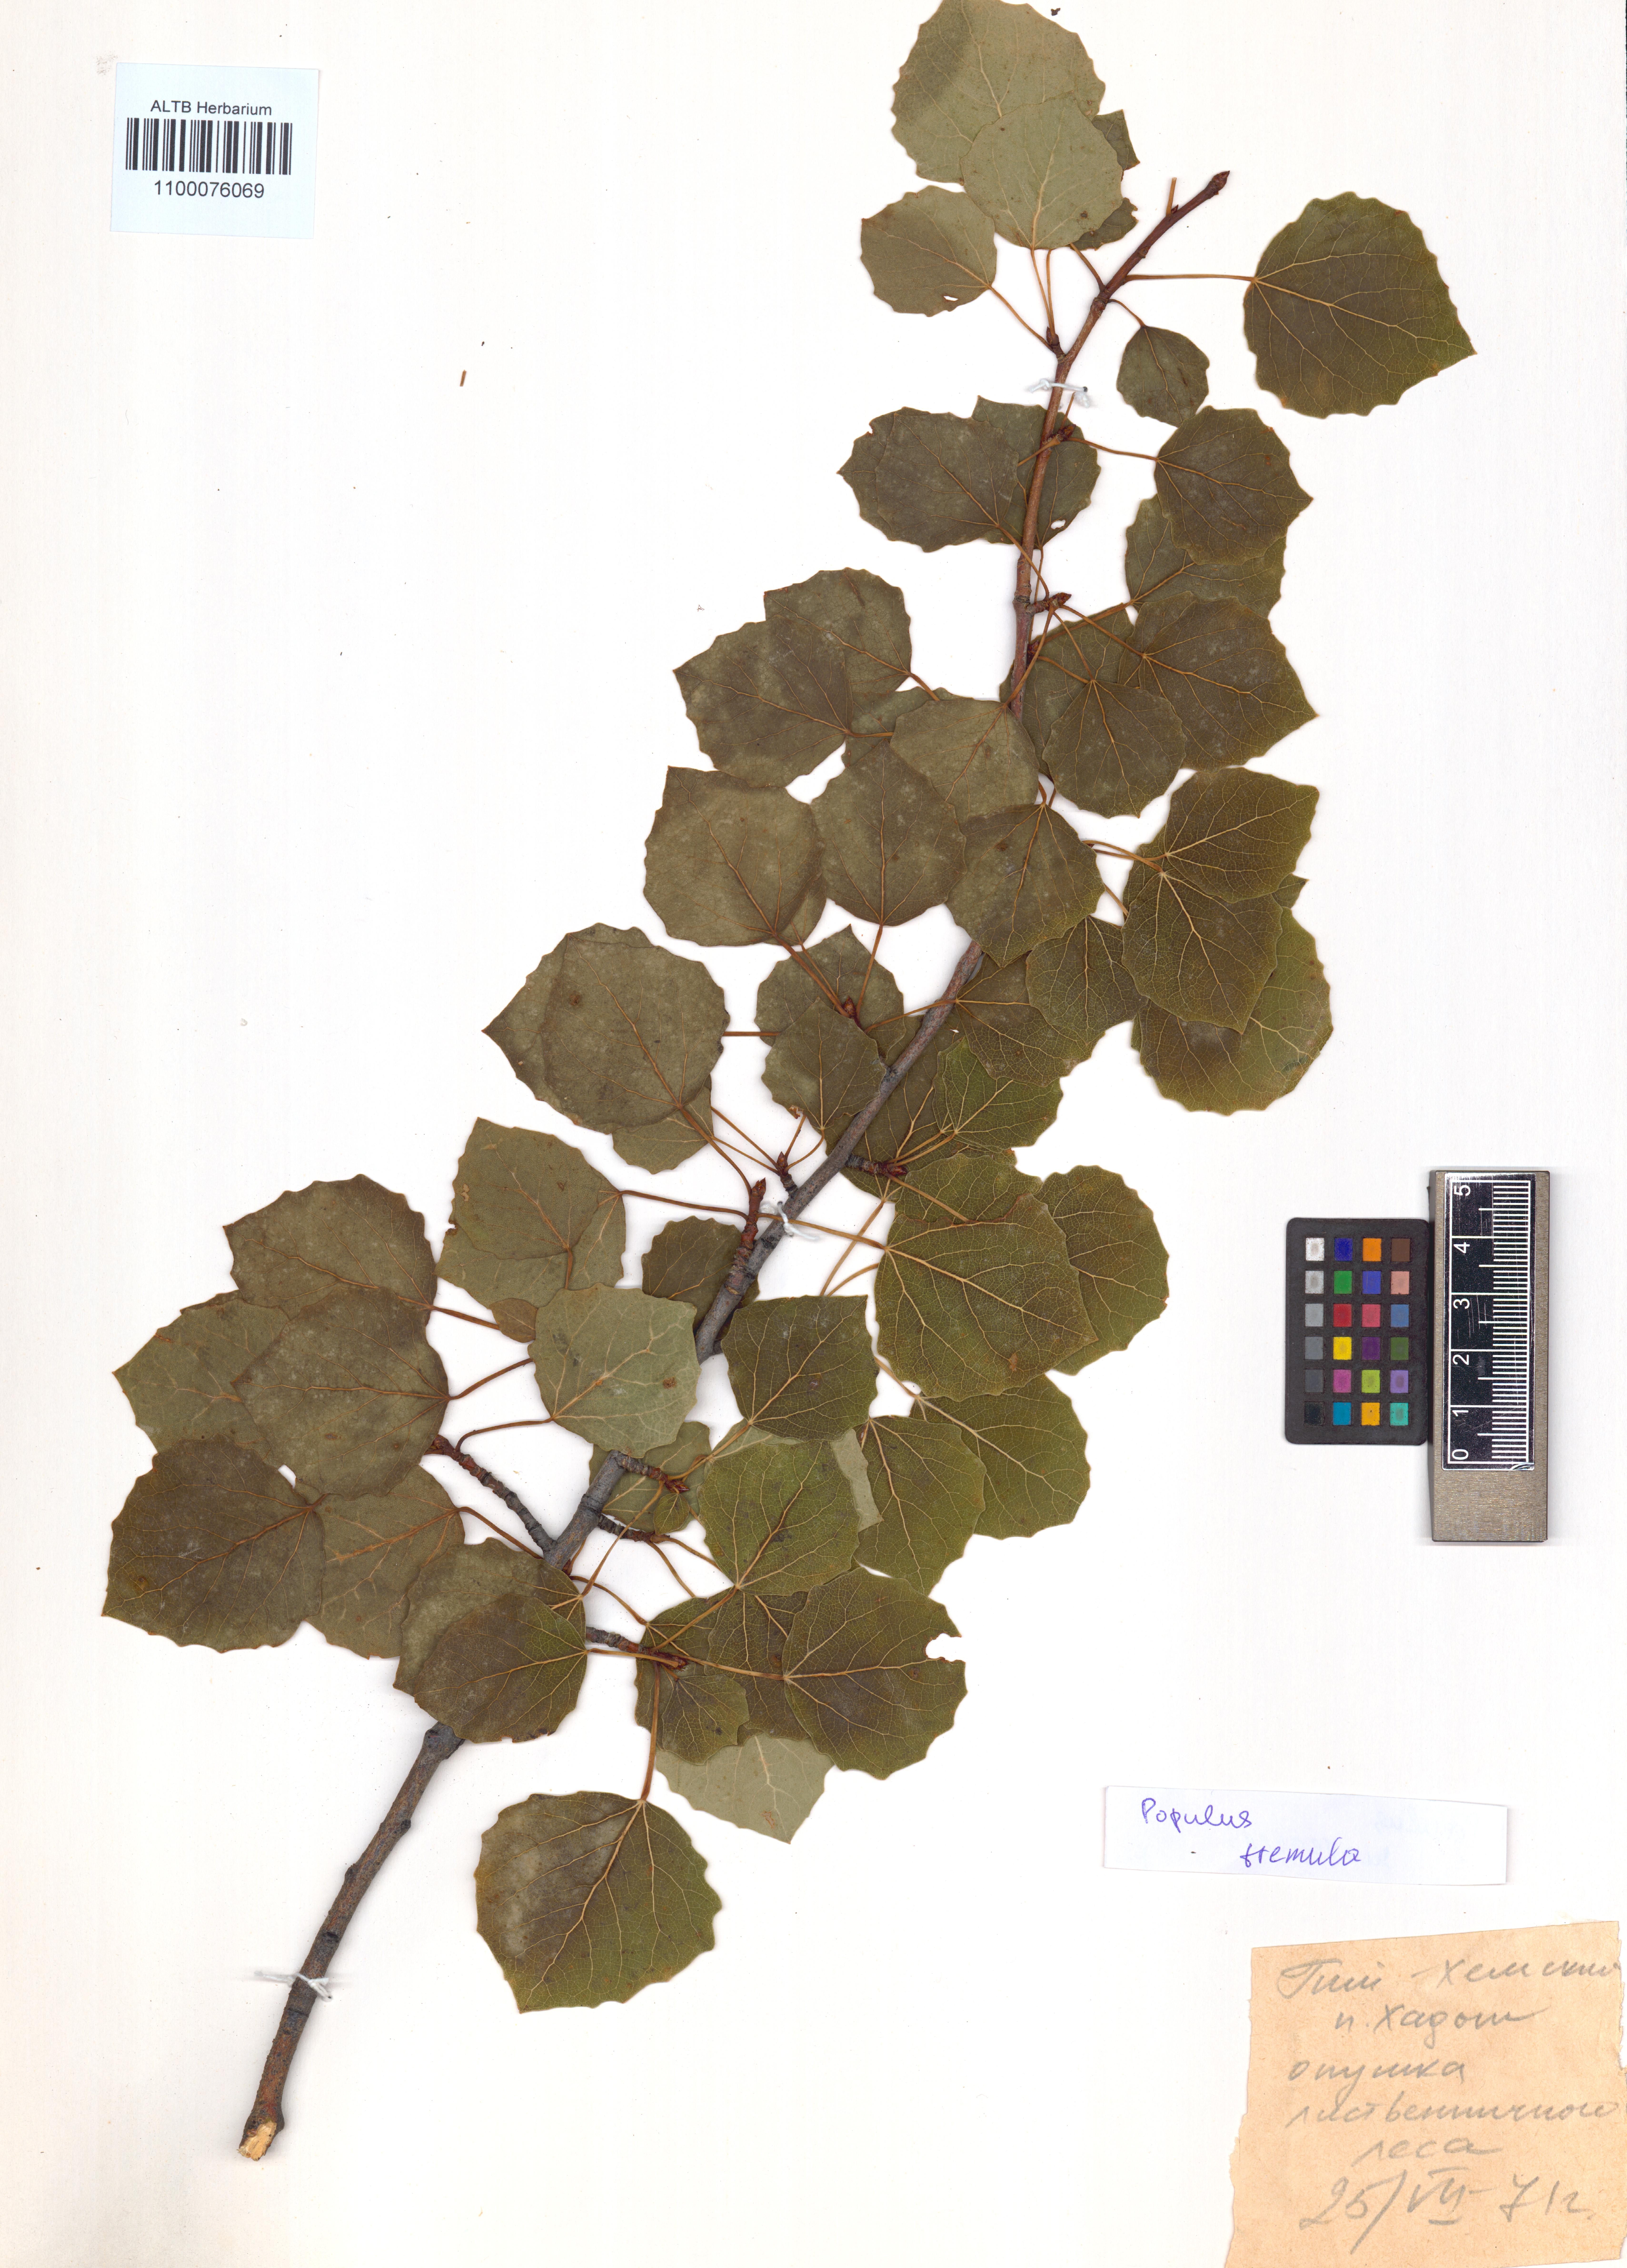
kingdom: Plantae
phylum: Tracheophyta
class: Magnoliopsida
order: Malpighiales
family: Salicaceae
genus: Populus
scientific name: Populus tremula
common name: European aspen
